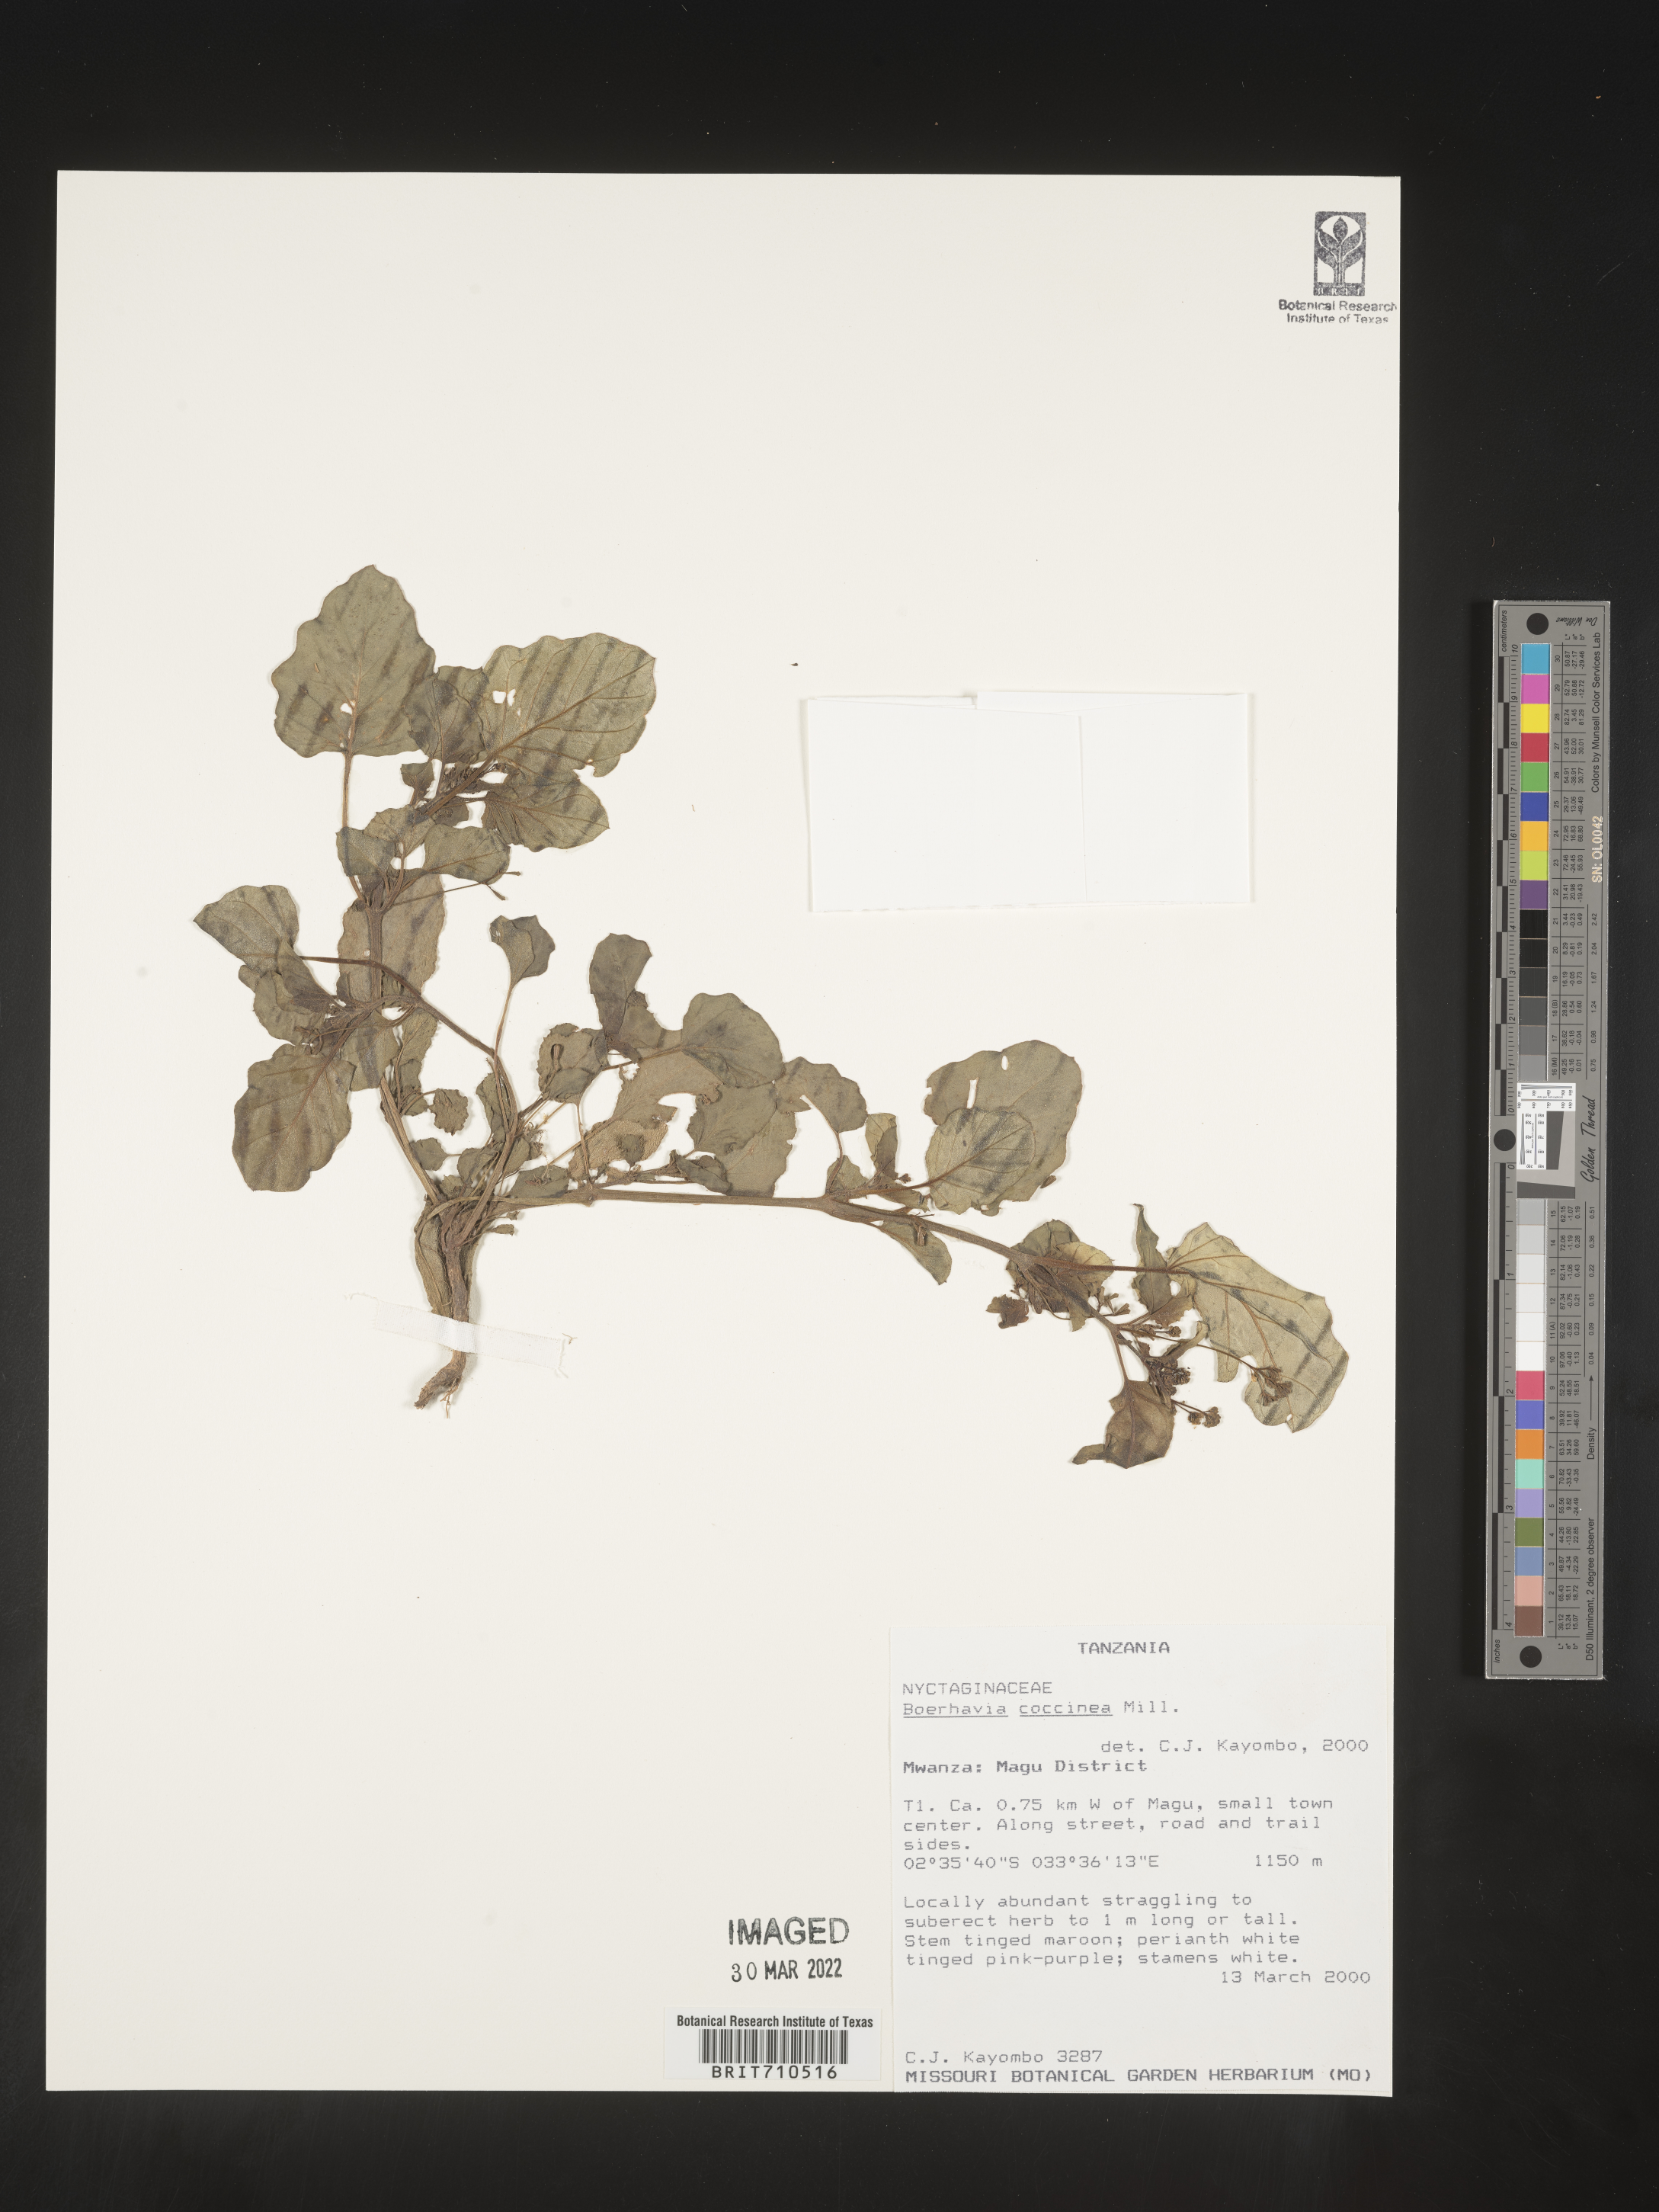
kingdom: Plantae
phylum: Tracheophyta
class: Magnoliopsida
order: Caryophyllales
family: Nyctaginaceae
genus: Boerhavia
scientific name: Boerhavia
